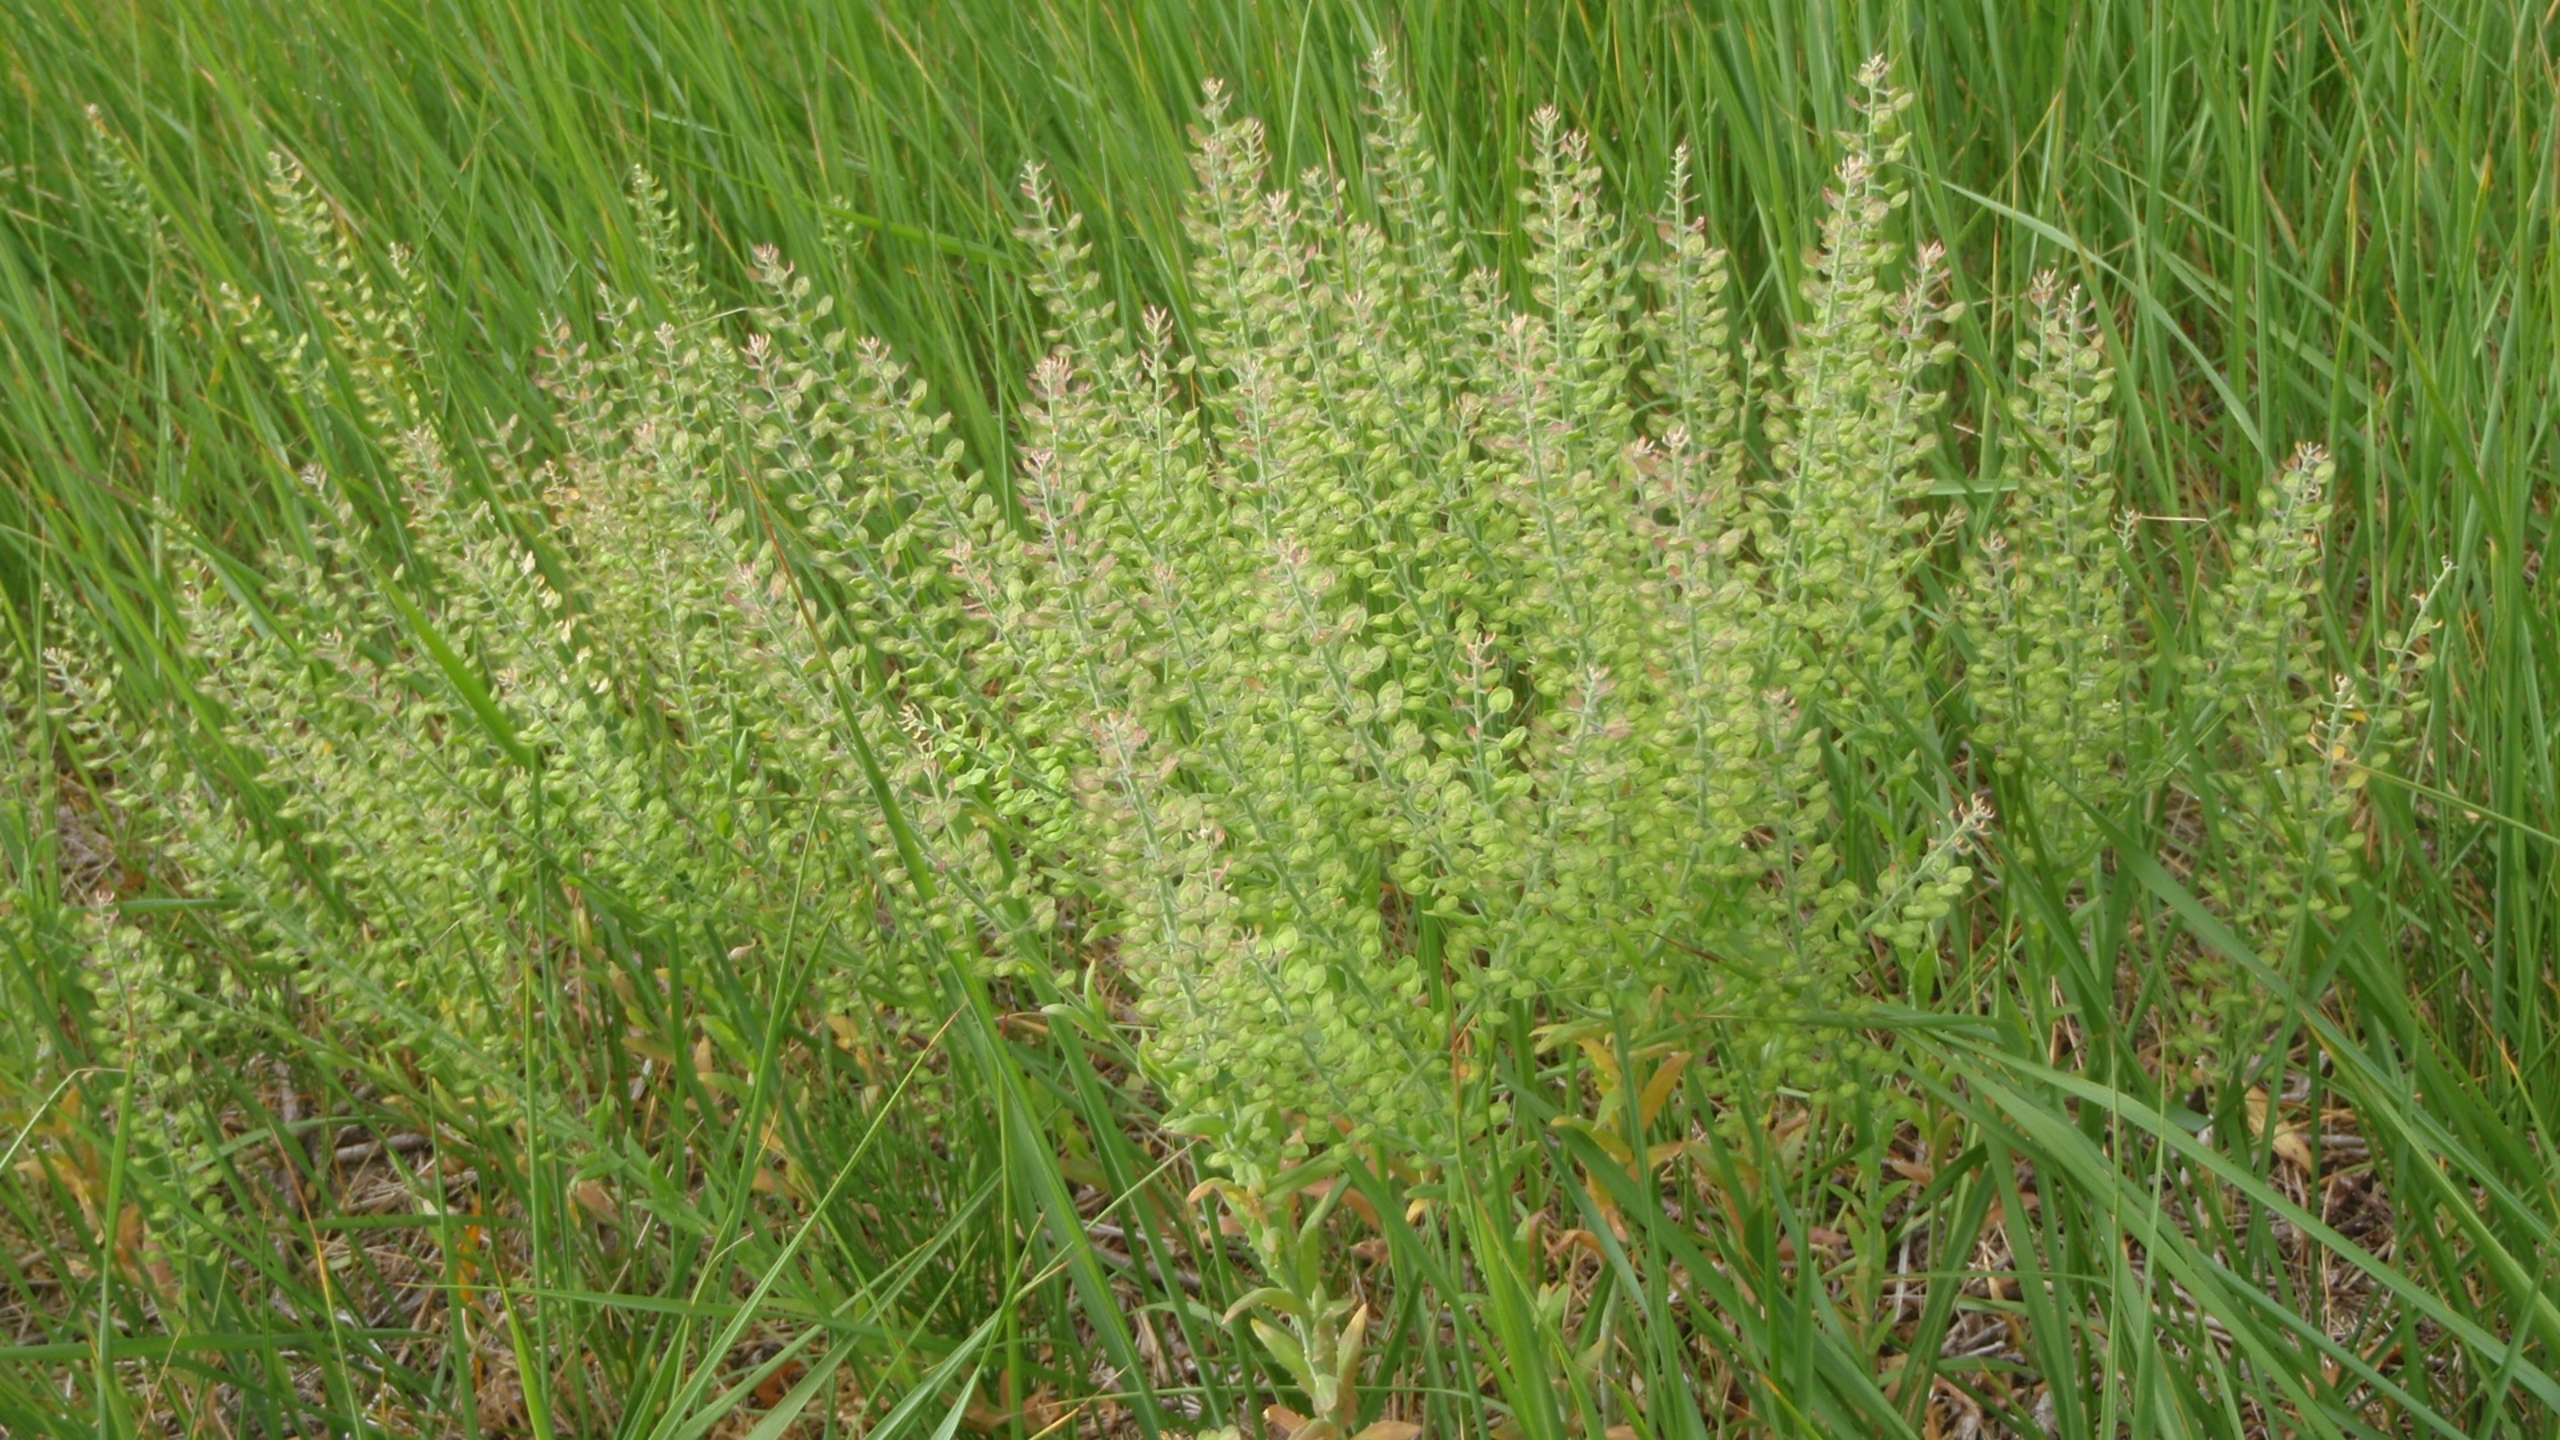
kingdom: Plantae
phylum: Tracheophyta
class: Magnoliopsida
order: Brassicales
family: Brassicaceae
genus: Lepidium
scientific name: Lepidium campestre
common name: Salomons lysestage
